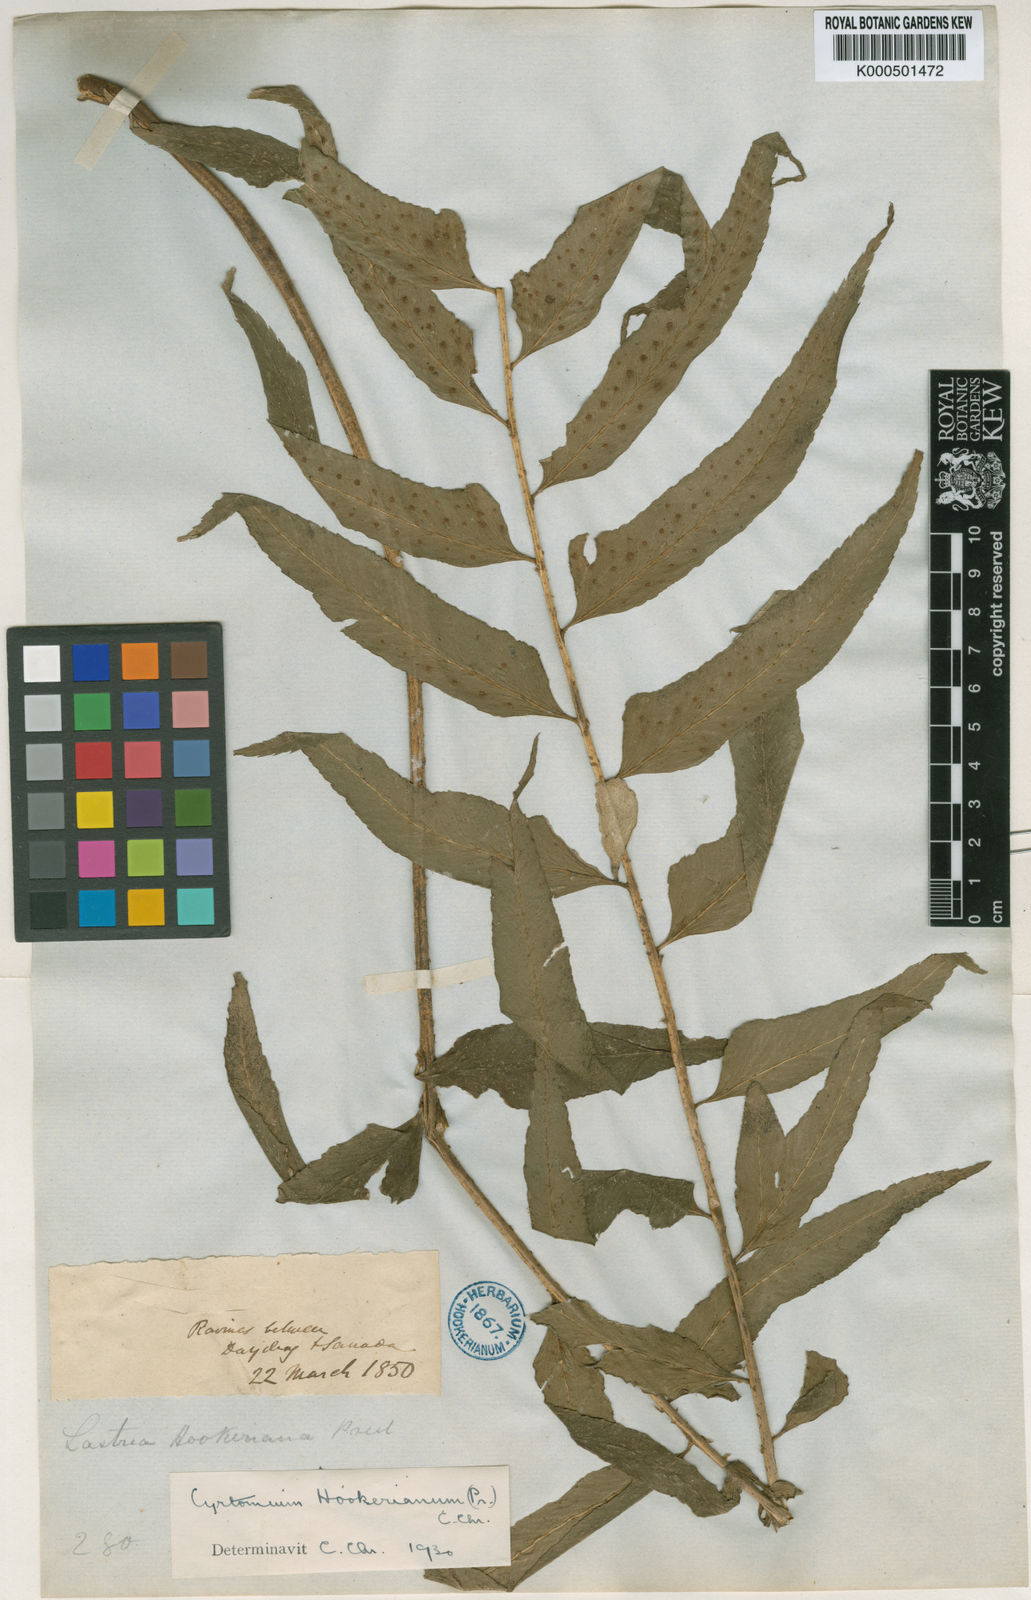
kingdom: Plantae
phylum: Tracheophyta
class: Polypodiopsida
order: Polypodiales
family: Dryopteridaceae
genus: Polystichum
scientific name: Polystichum hookerianum
